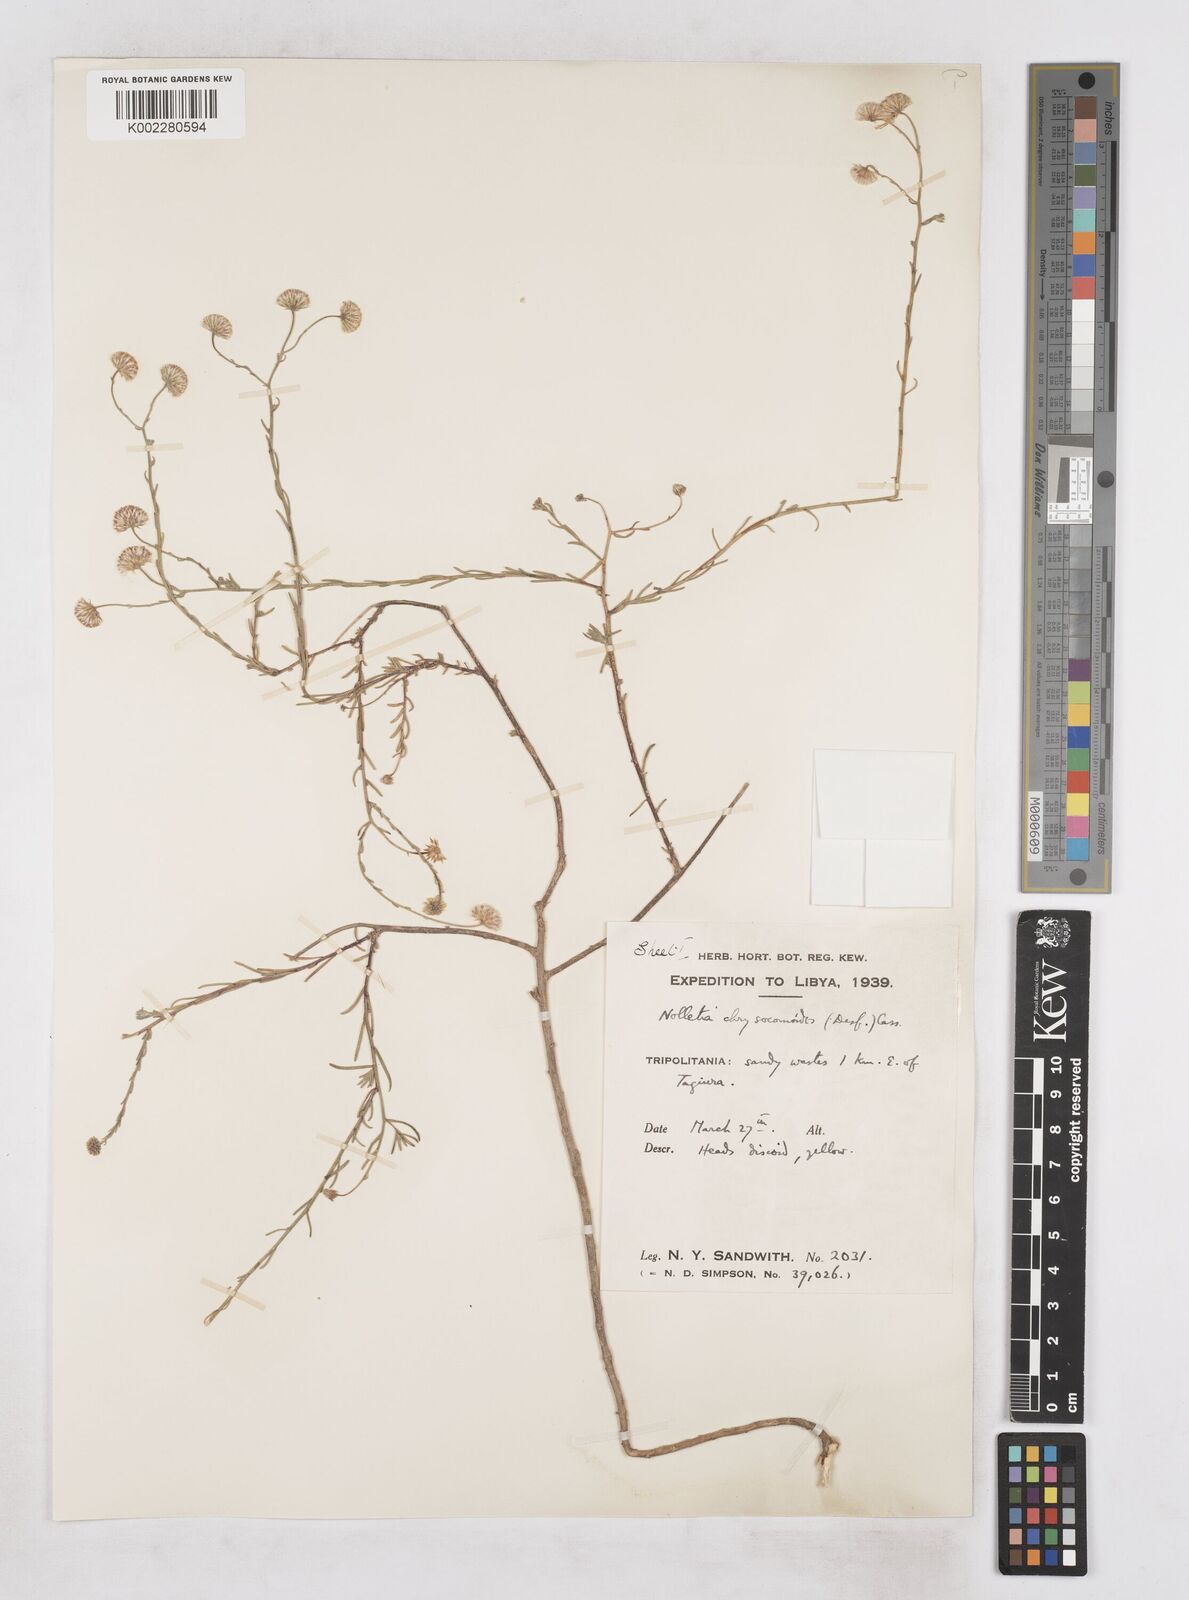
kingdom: Plantae
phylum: Tracheophyta
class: Magnoliopsida
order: Asterales
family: Asteraceae
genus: Nolletia
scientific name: Nolletia chrysocomoides
